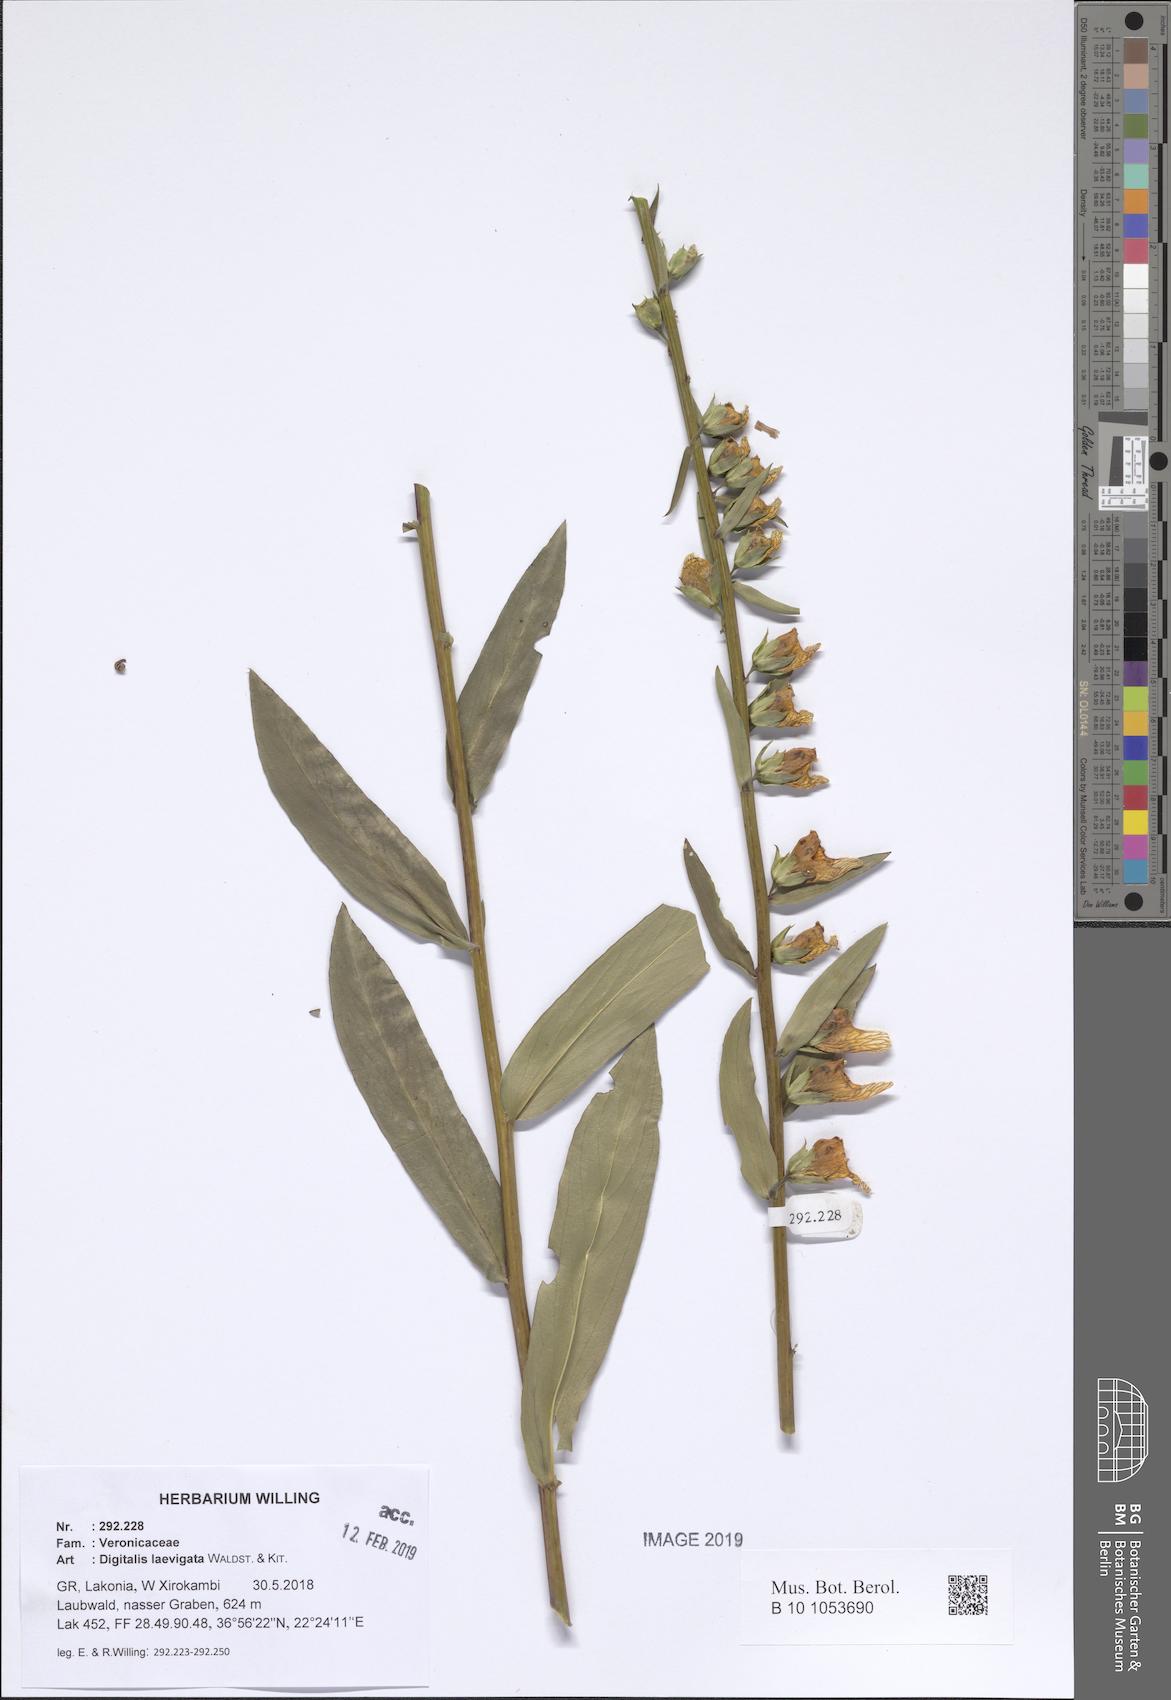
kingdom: Plantae
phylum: Tracheophyta
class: Magnoliopsida
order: Lamiales
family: Plantaginaceae
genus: Digitalis
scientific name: Digitalis laevigata
